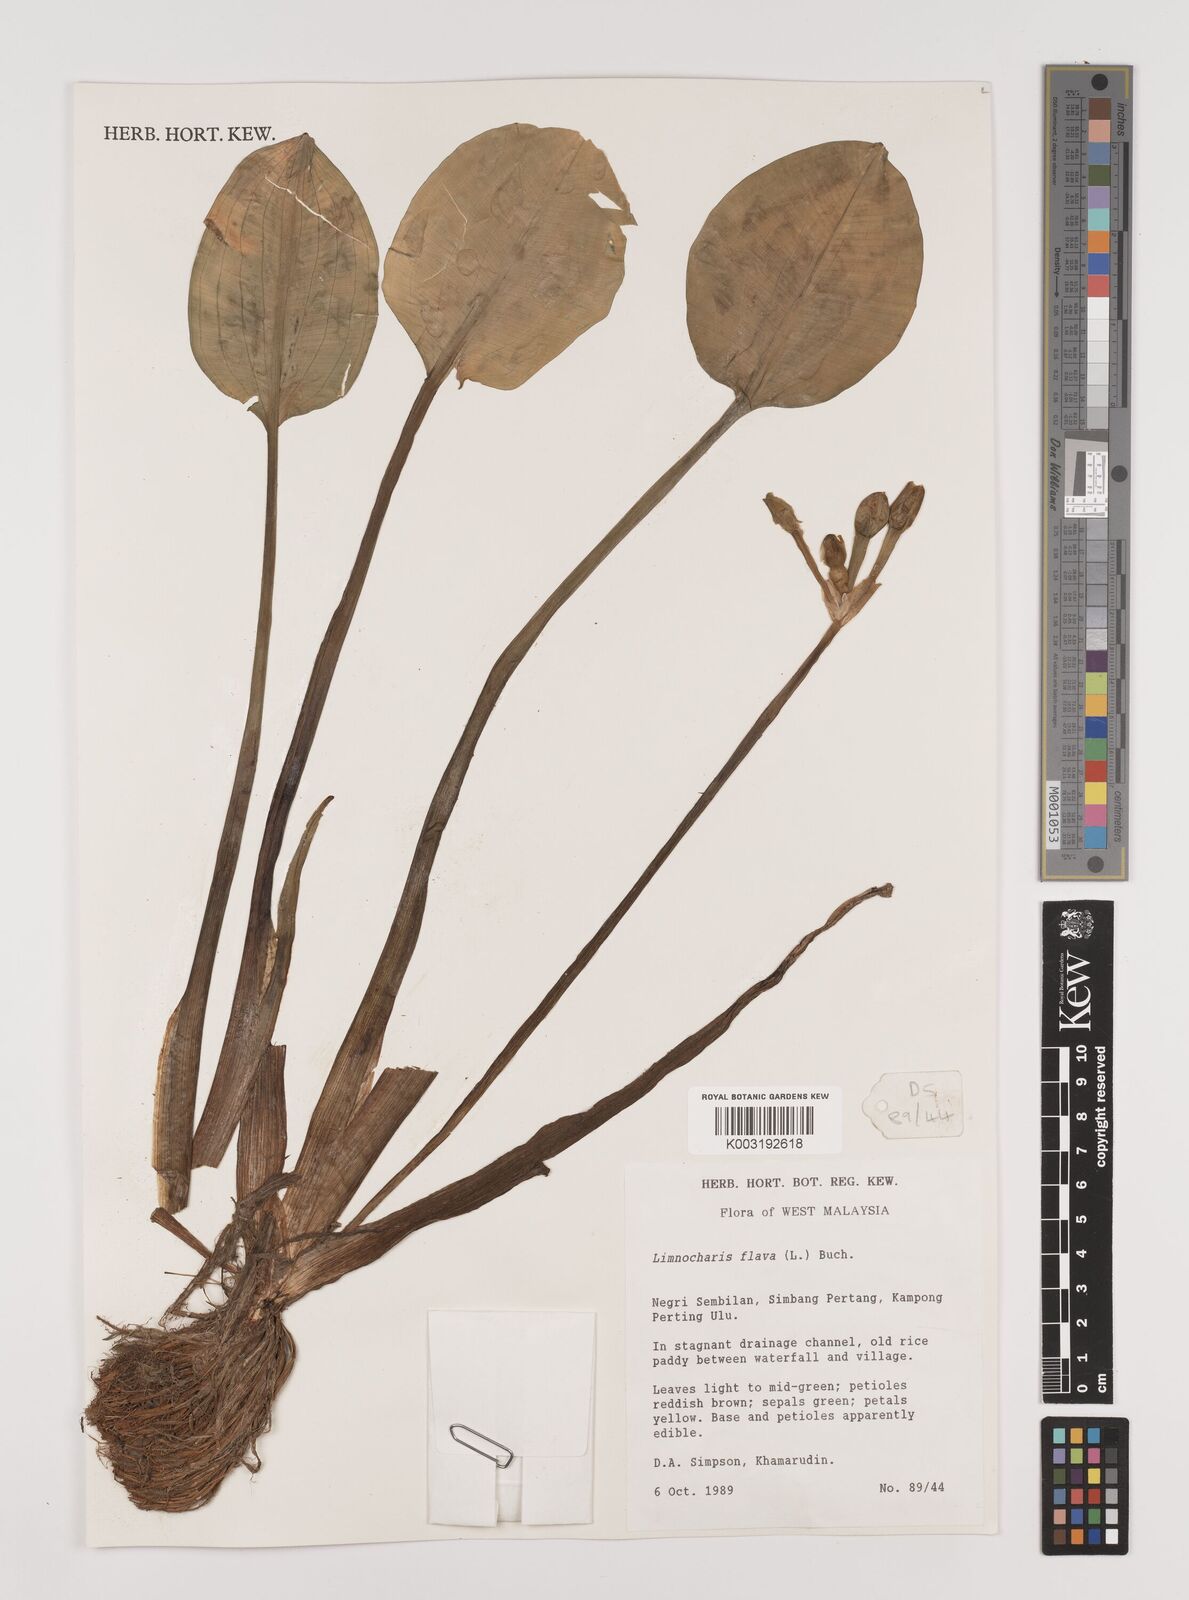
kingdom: Plantae
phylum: Tracheophyta
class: Liliopsida
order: Alismatales
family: Alismataceae
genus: Limnocharis
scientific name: Limnocharis flava
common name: Sawah-flower-rush
